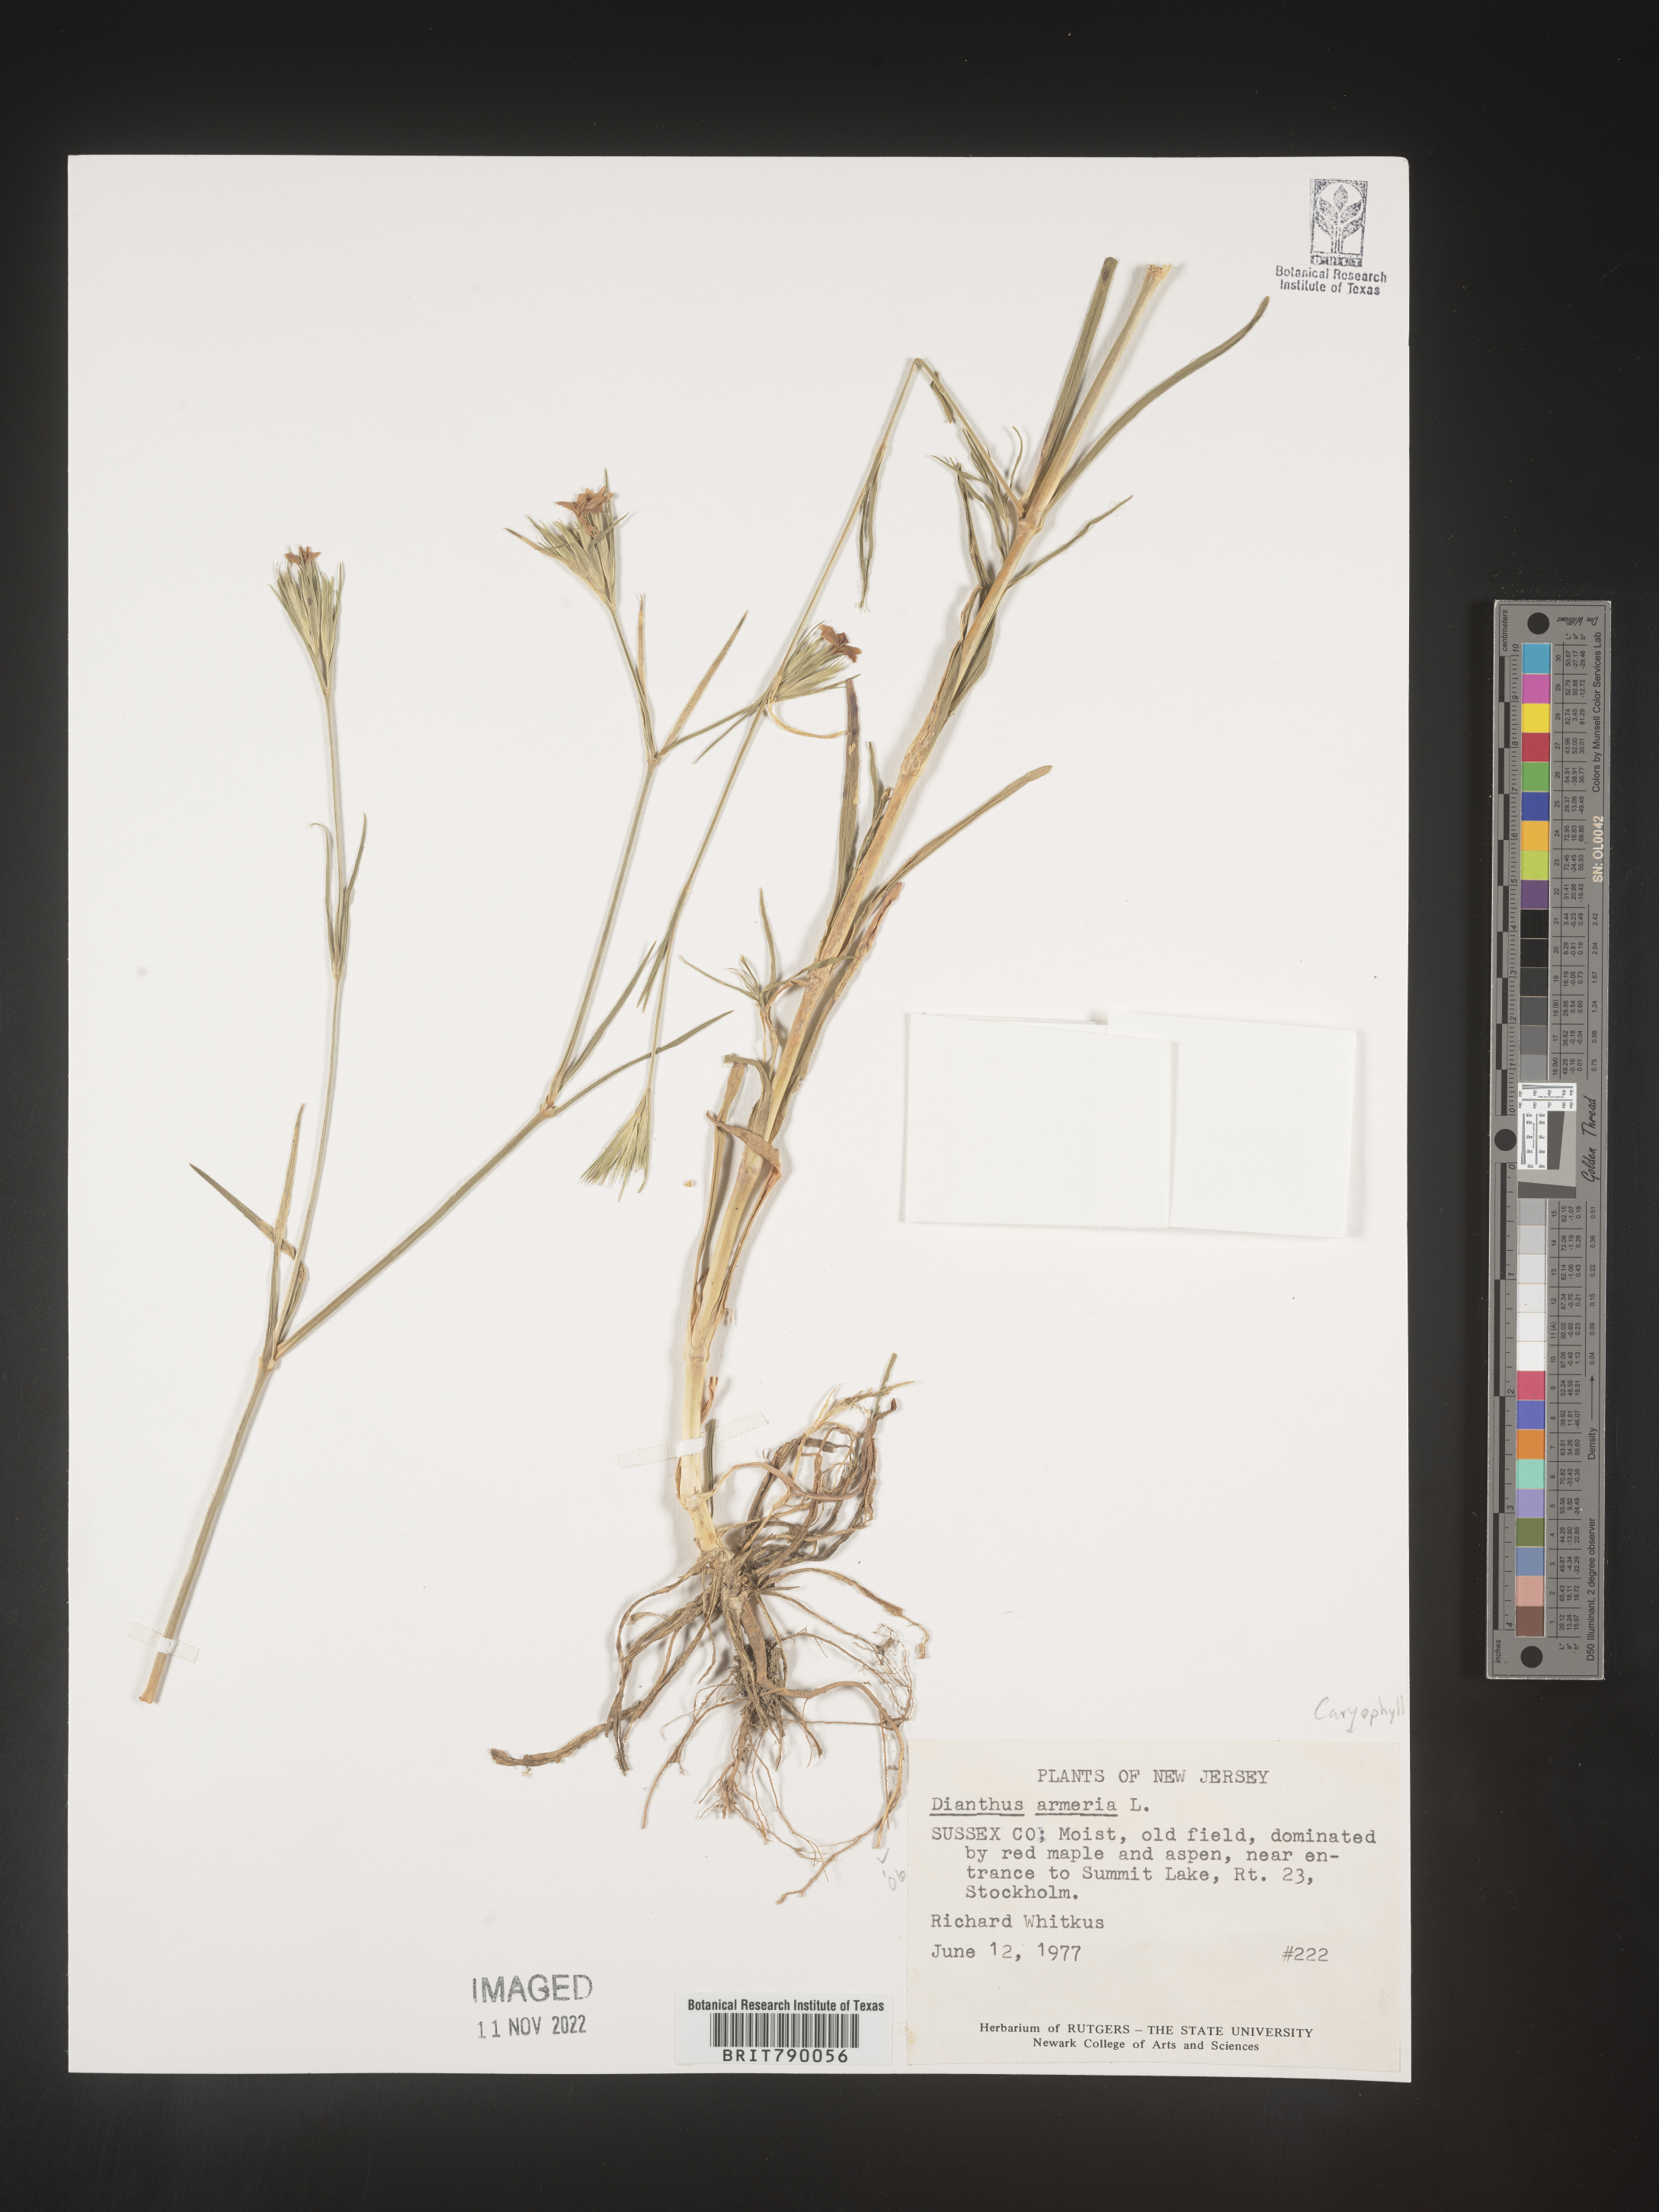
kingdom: Plantae
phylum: Tracheophyta
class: Magnoliopsida
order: Caryophyllales
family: Caryophyllaceae
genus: Dianthus
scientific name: Dianthus armeria
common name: Deptford pink
